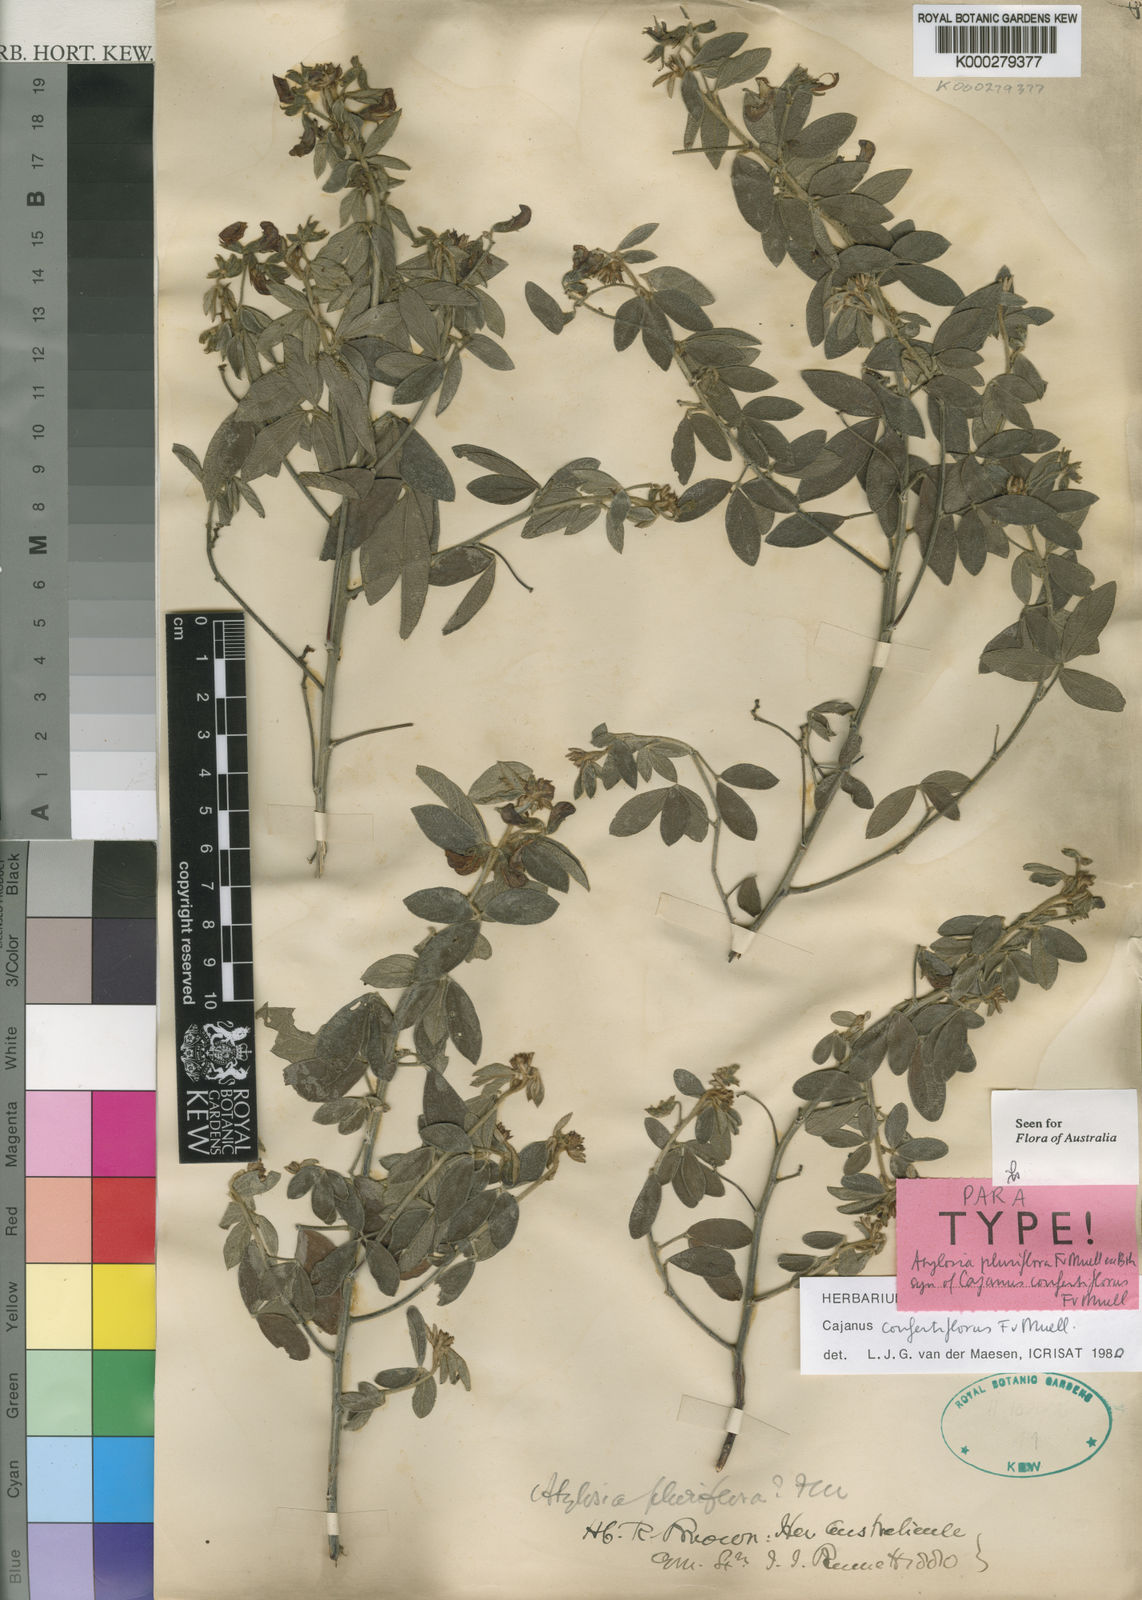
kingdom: Plantae
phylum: Tracheophyta
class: Magnoliopsida
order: Fabales
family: Fabaceae
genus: Cajanus
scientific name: Cajanus confertiflorus
